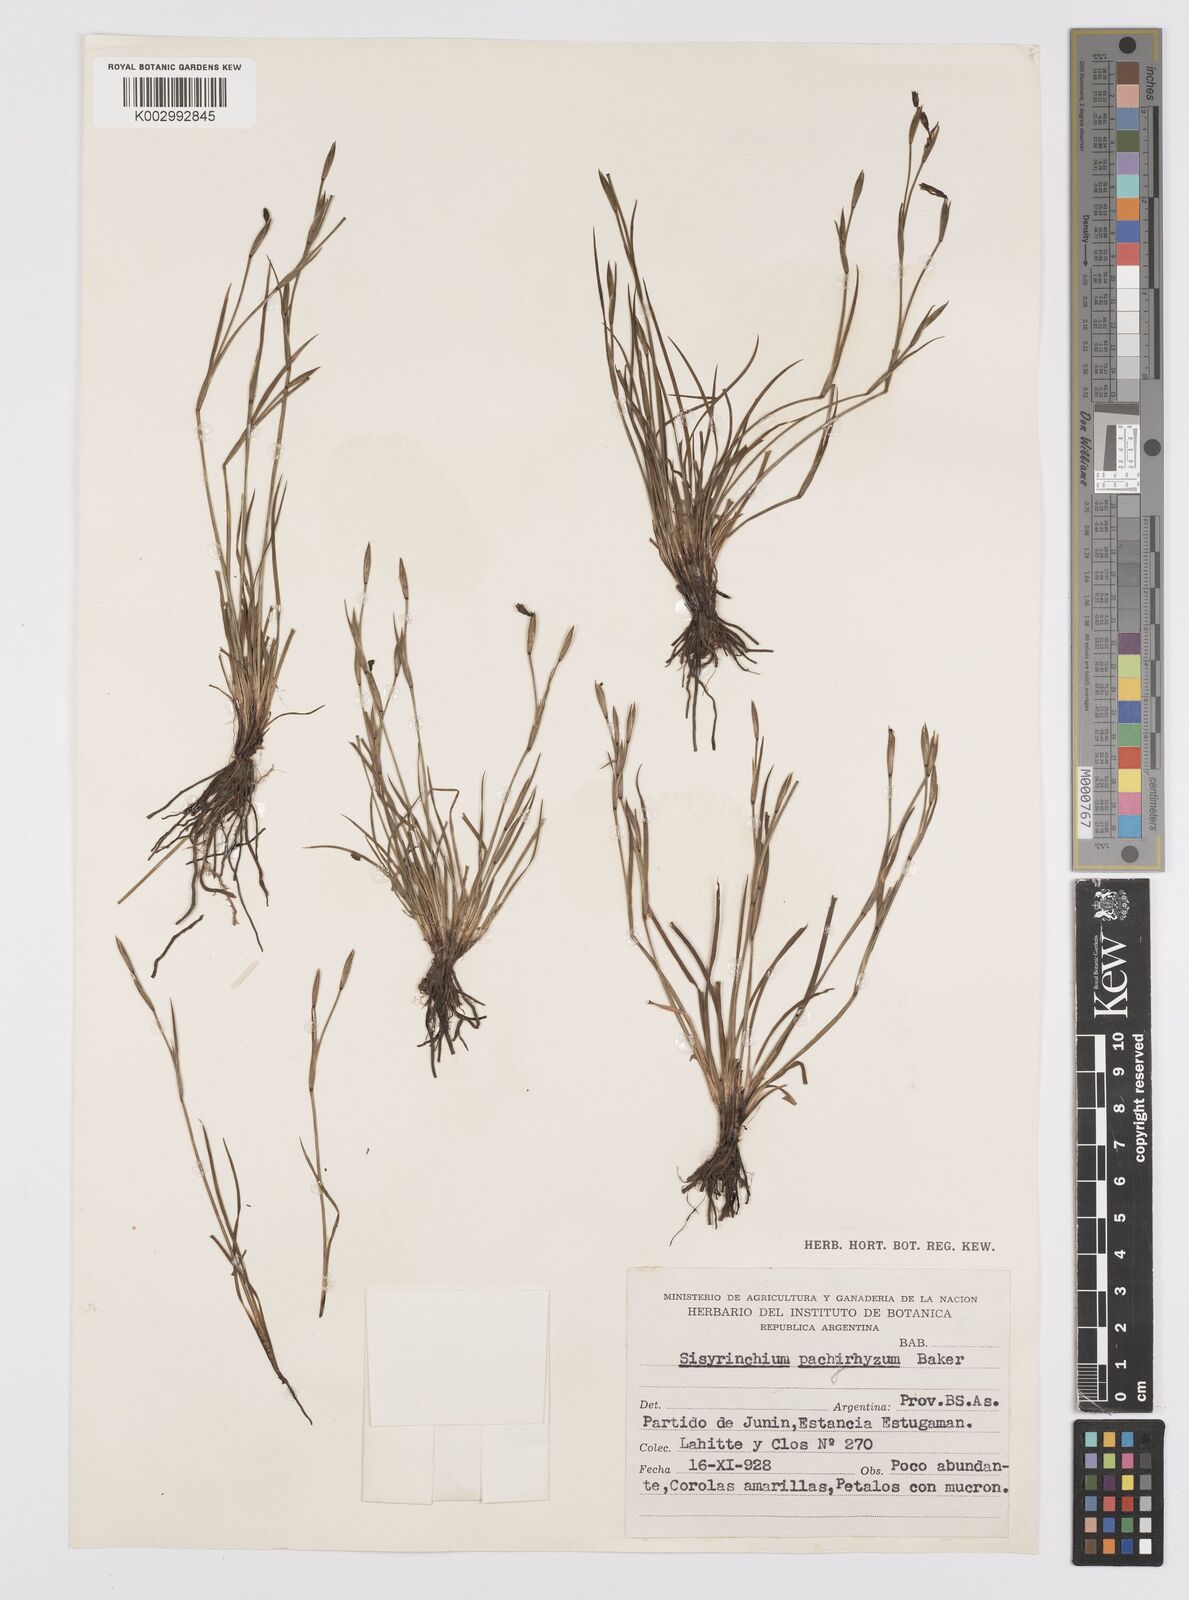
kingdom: Plantae
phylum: Tracheophyta
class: Liliopsida
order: Asparagales
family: Iridaceae
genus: Sisyrinchium
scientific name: Sisyrinchium pachyrhizum
